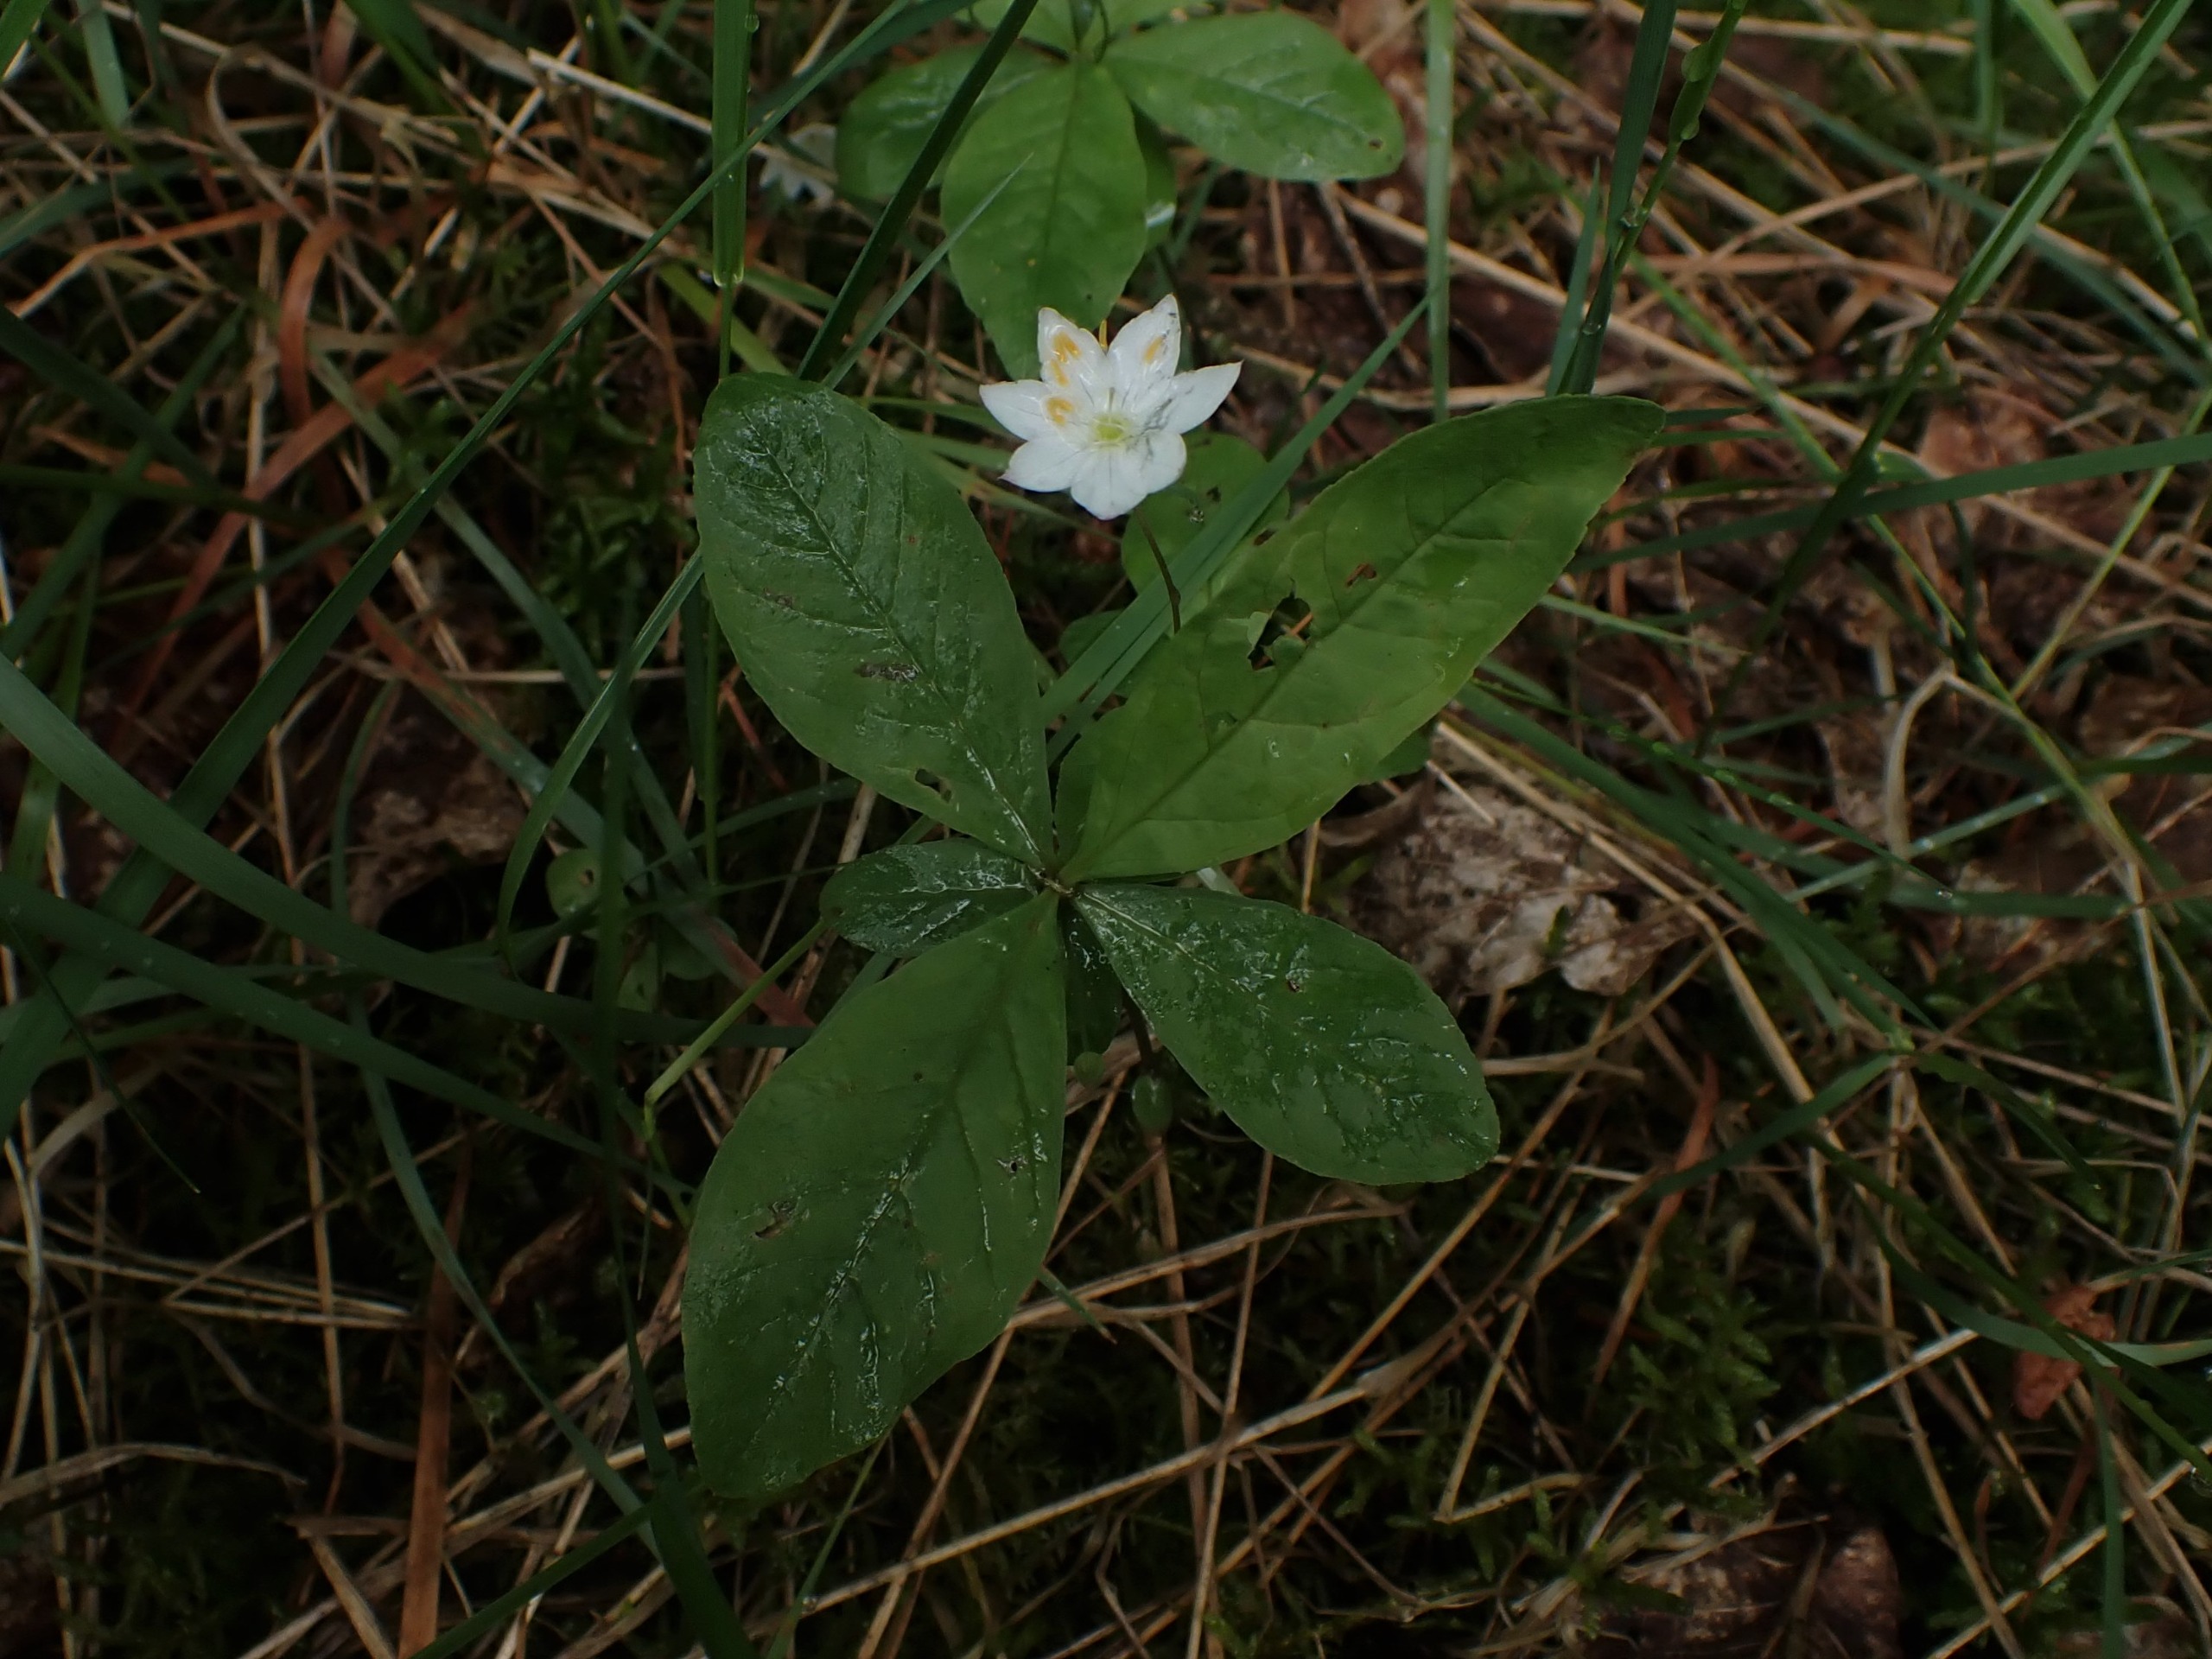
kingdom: Plantae
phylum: Tracheophyta
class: Magnoliopsida
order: Ericales
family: Primulaceae
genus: Lysimachia
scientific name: Lysimachia europaea
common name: Skovstjerne
